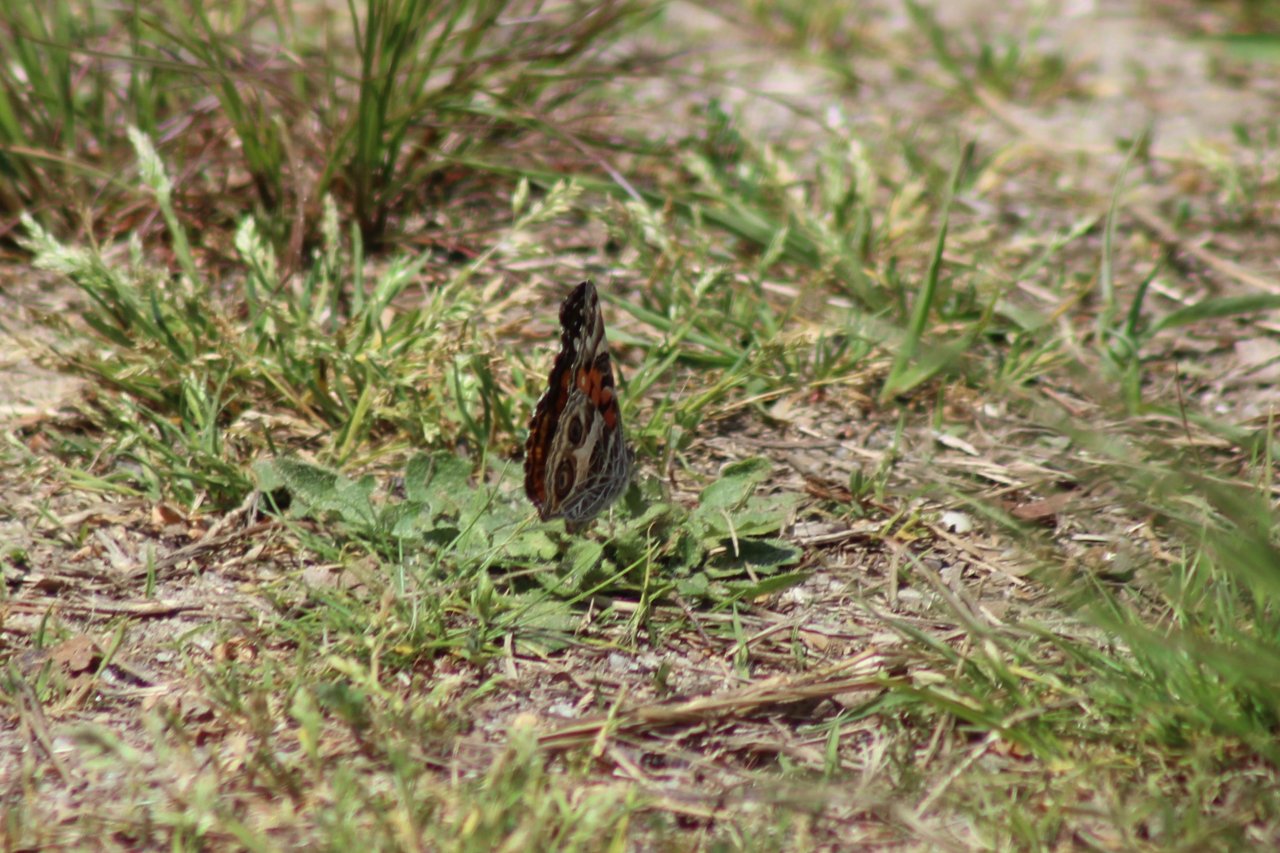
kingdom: Animalia
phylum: Arthropoda
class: Insecta
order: Lepidoptera
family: Nymphalidae
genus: Vanessa
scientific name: Vanessa virginiensis
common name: American Lady
